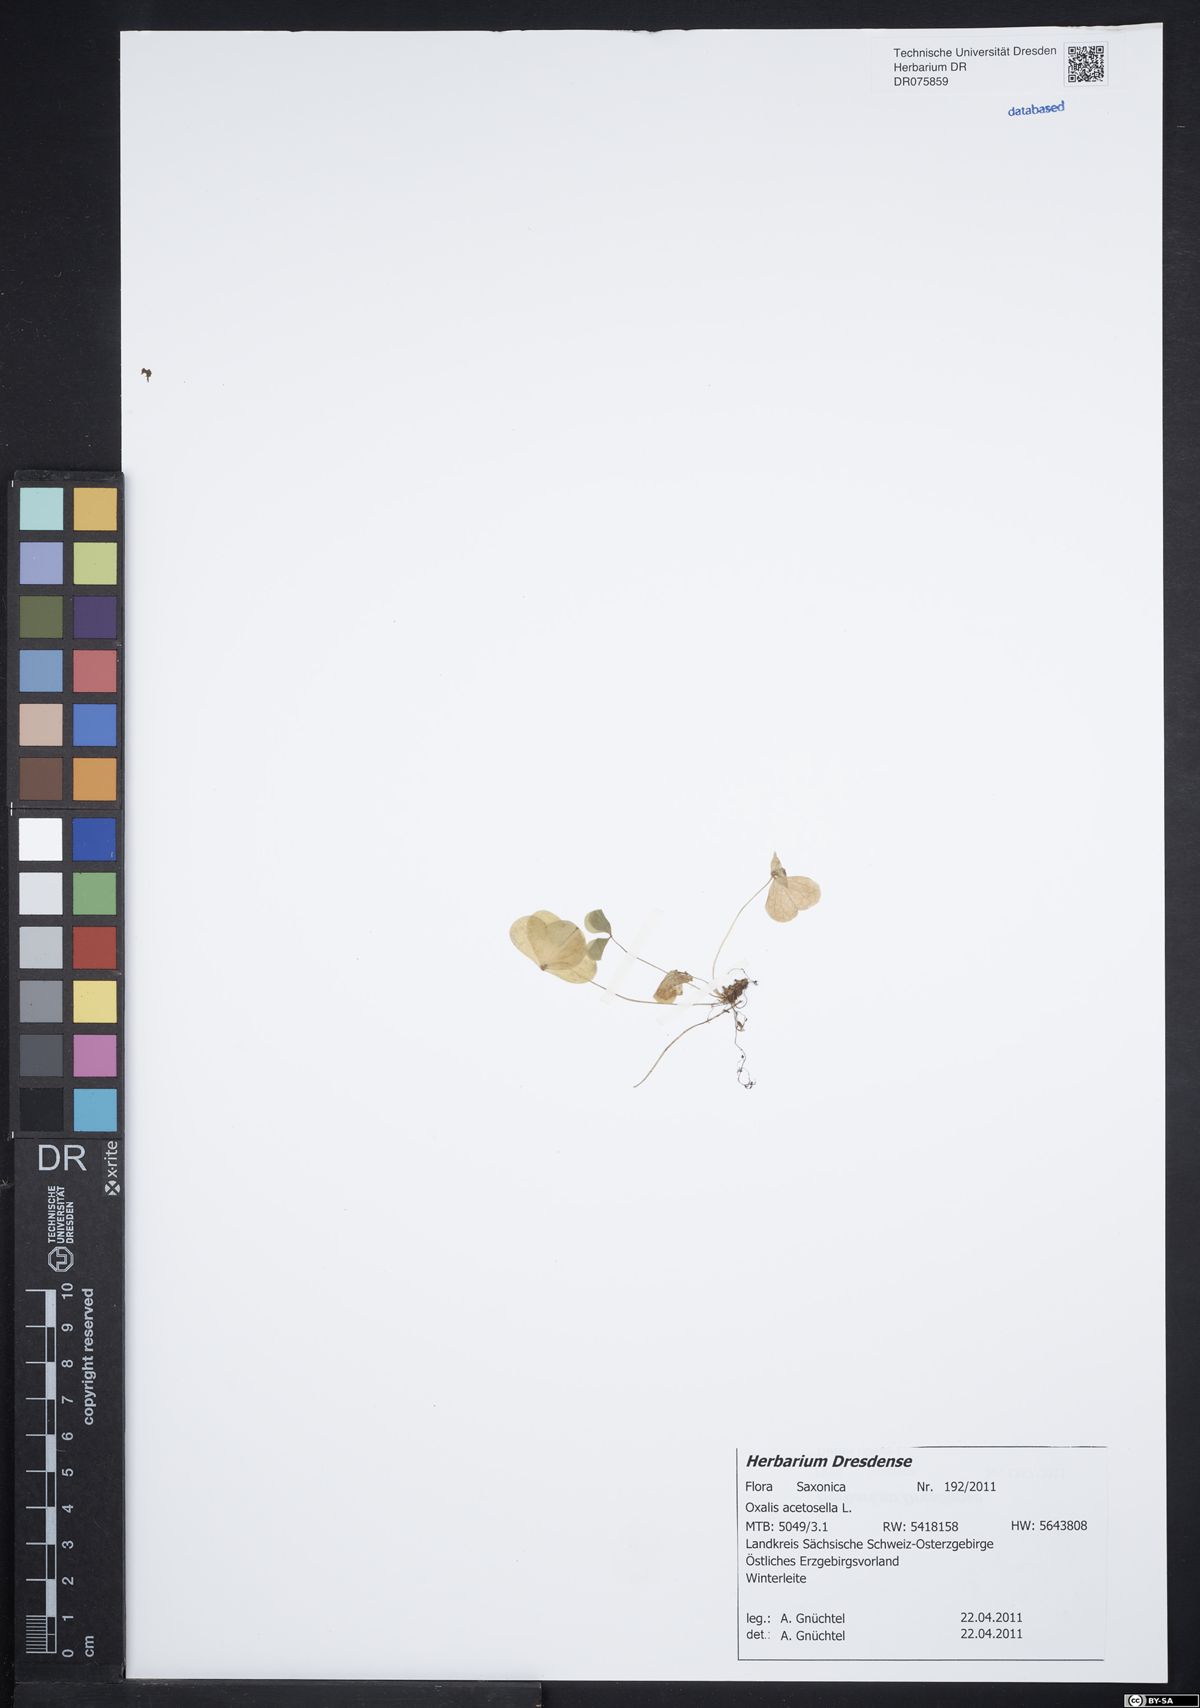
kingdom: Plantae
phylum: Tracheophyta
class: Magnoliopsida
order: Oxalidales
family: Oxalidaceae
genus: Oxalis
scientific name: Oxalis acetosella
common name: Wood-sorrel
